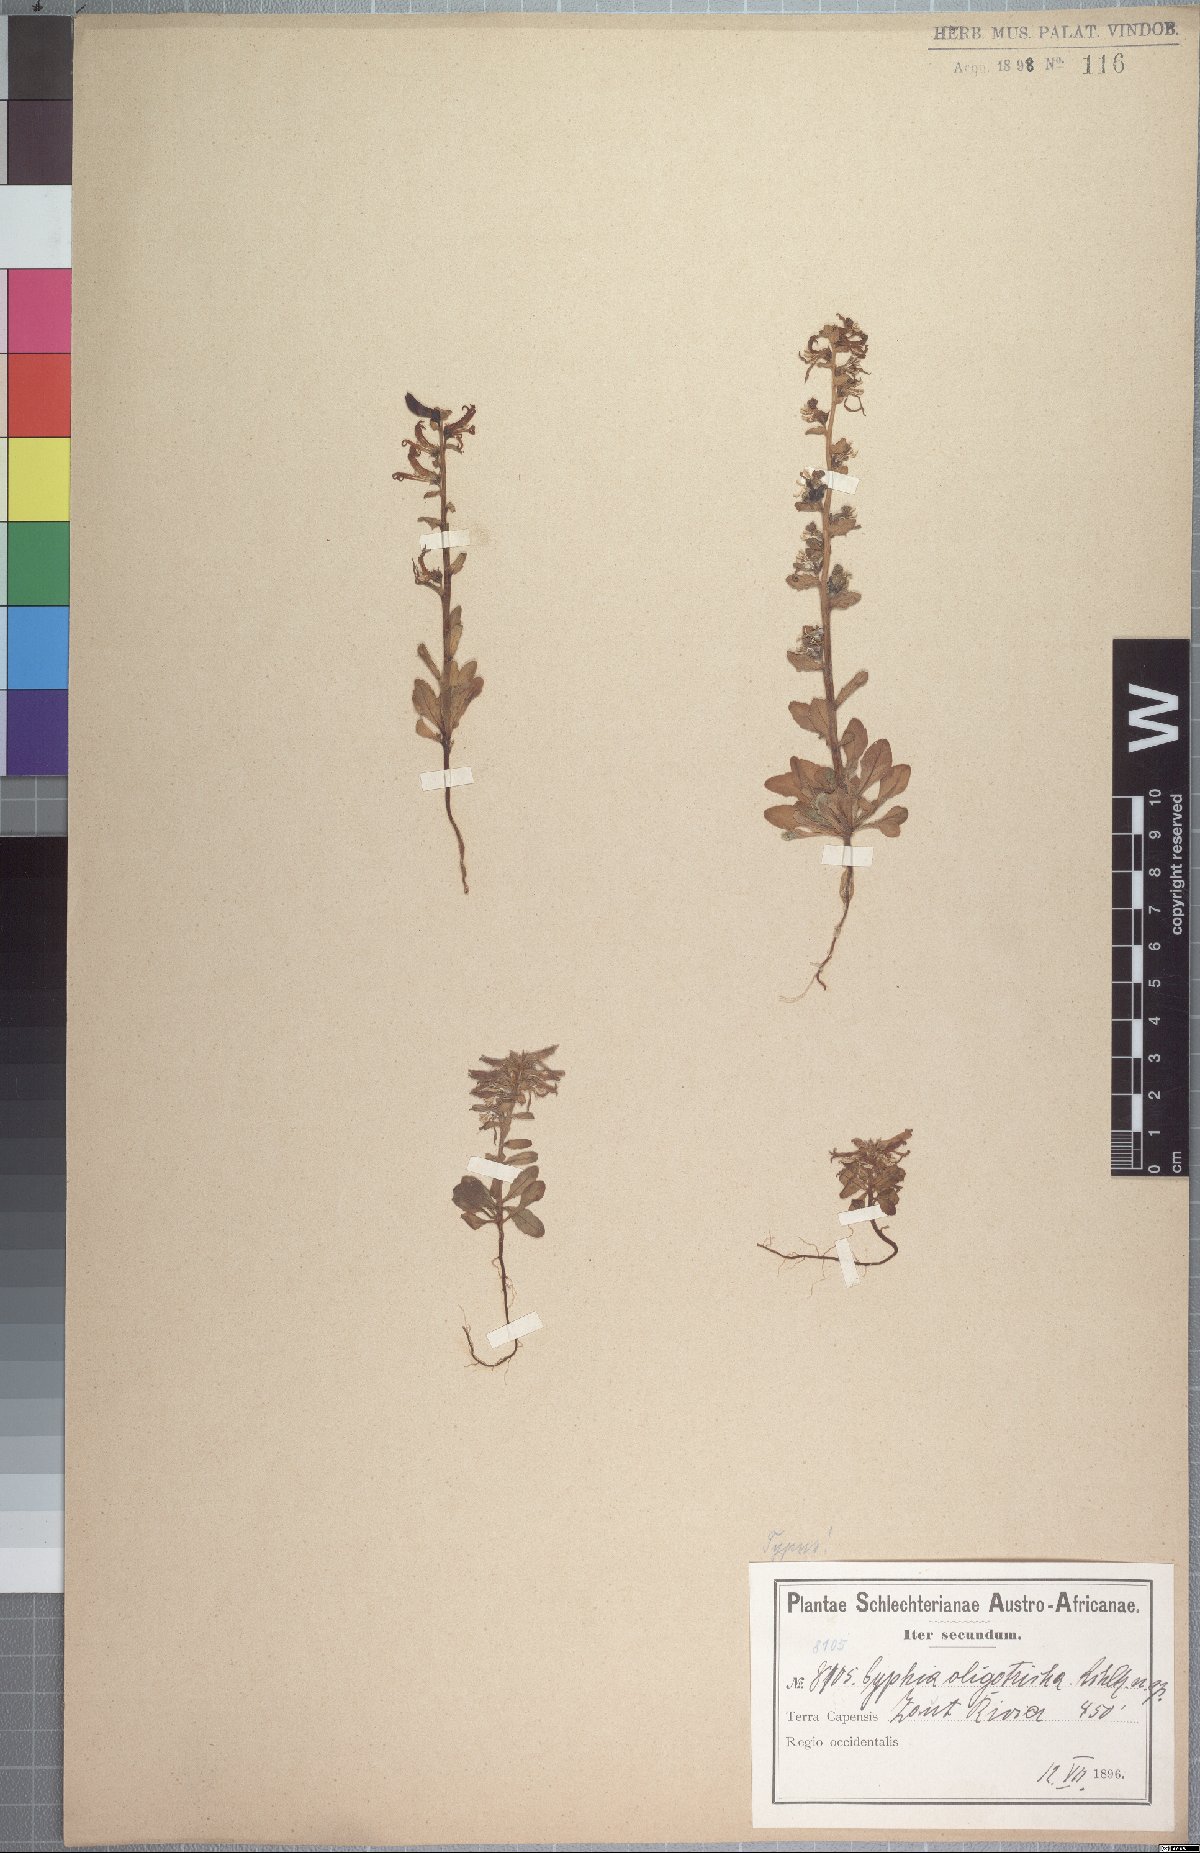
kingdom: Plantae
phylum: Tracheophyta
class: Magnoliopsida
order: Asterales
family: Campanulaceae
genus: Cyphia
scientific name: Cyphia oligotricha
